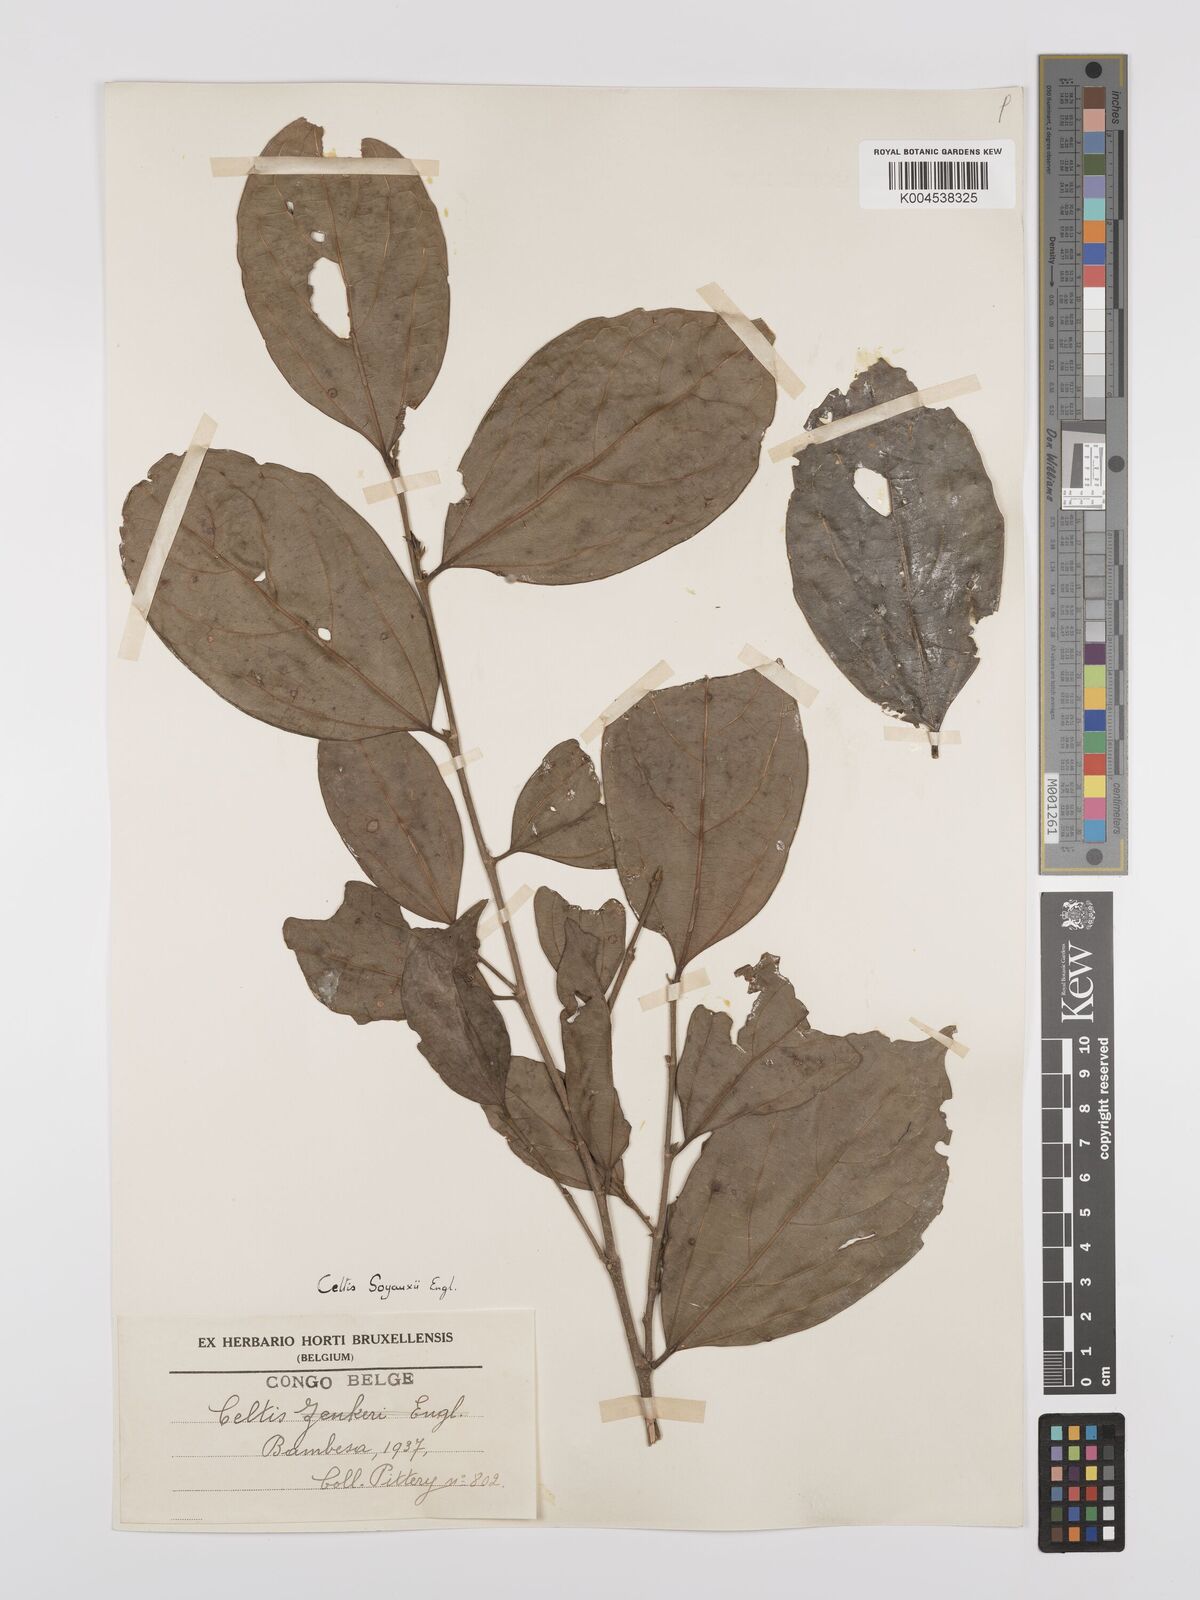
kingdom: Plantae
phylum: Tracheophyta
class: Magnoliopsida
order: Rosales
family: Cannabaceae
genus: Celtis
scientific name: Celtis mildbraedii
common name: Red-fruited stinkwood
